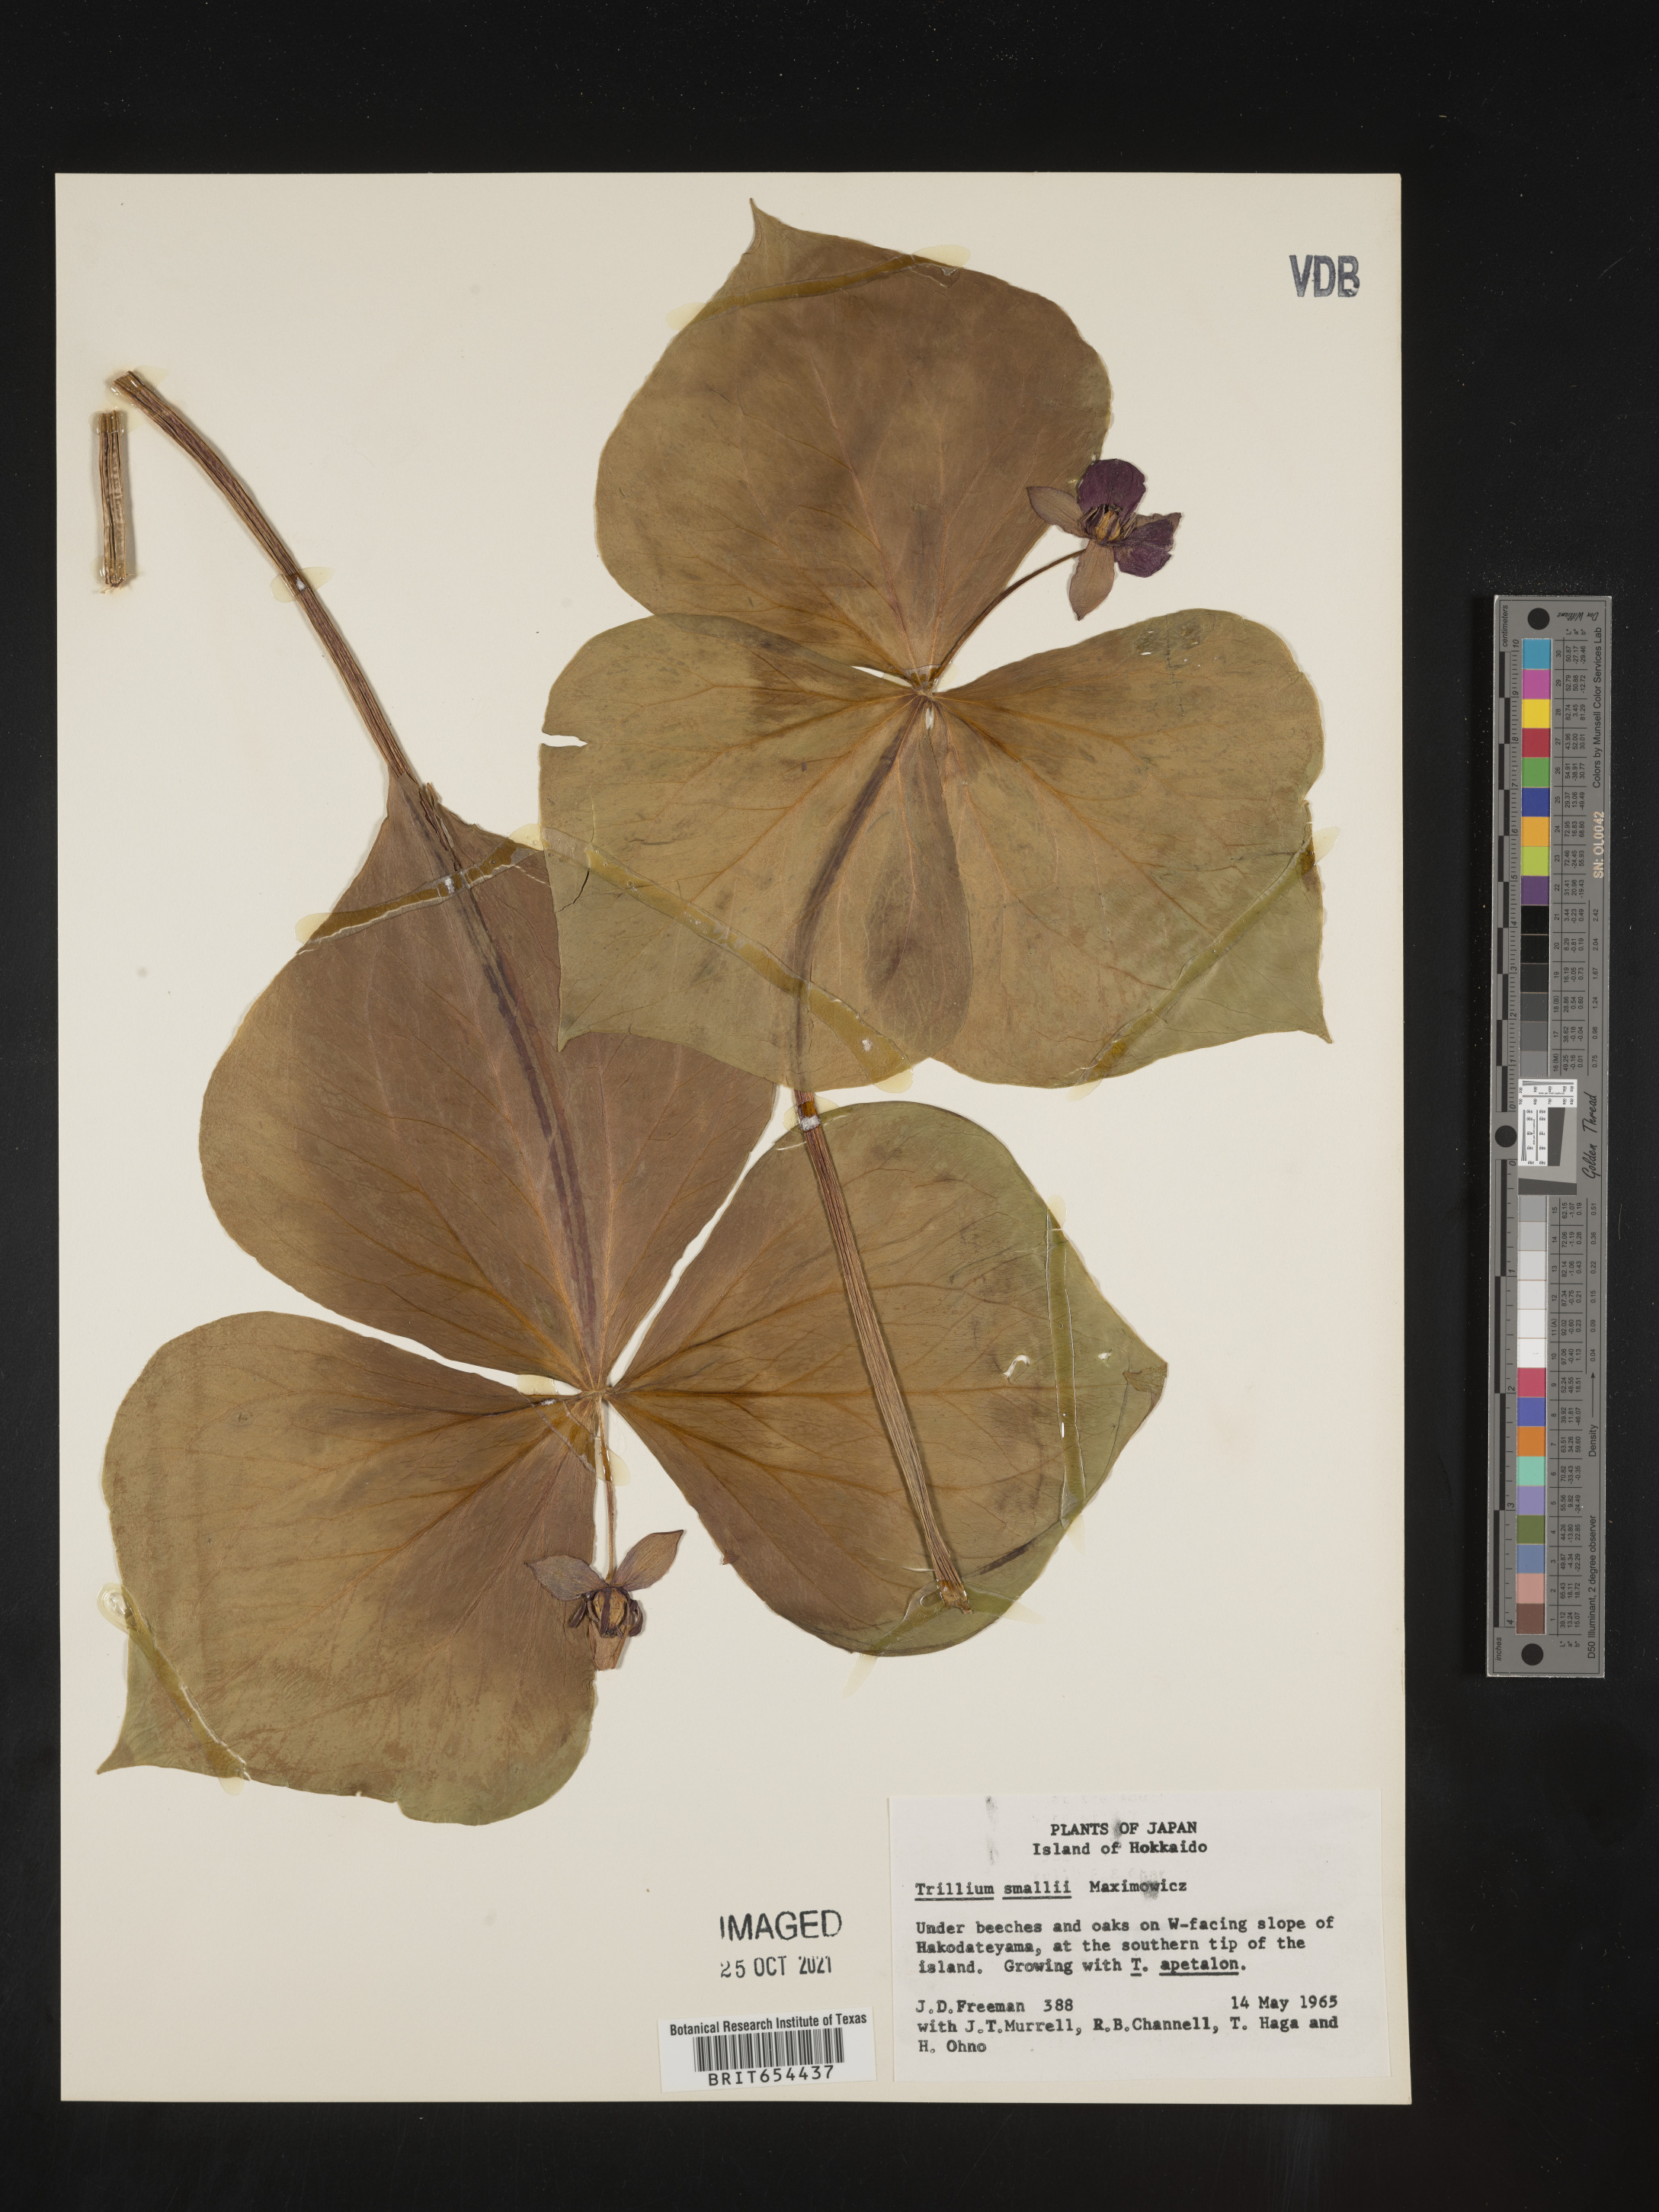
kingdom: Plantae
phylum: Tracheophyta
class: Liliopsida
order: Liliales
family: Melanthiaceae
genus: Trillium
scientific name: Trillium
